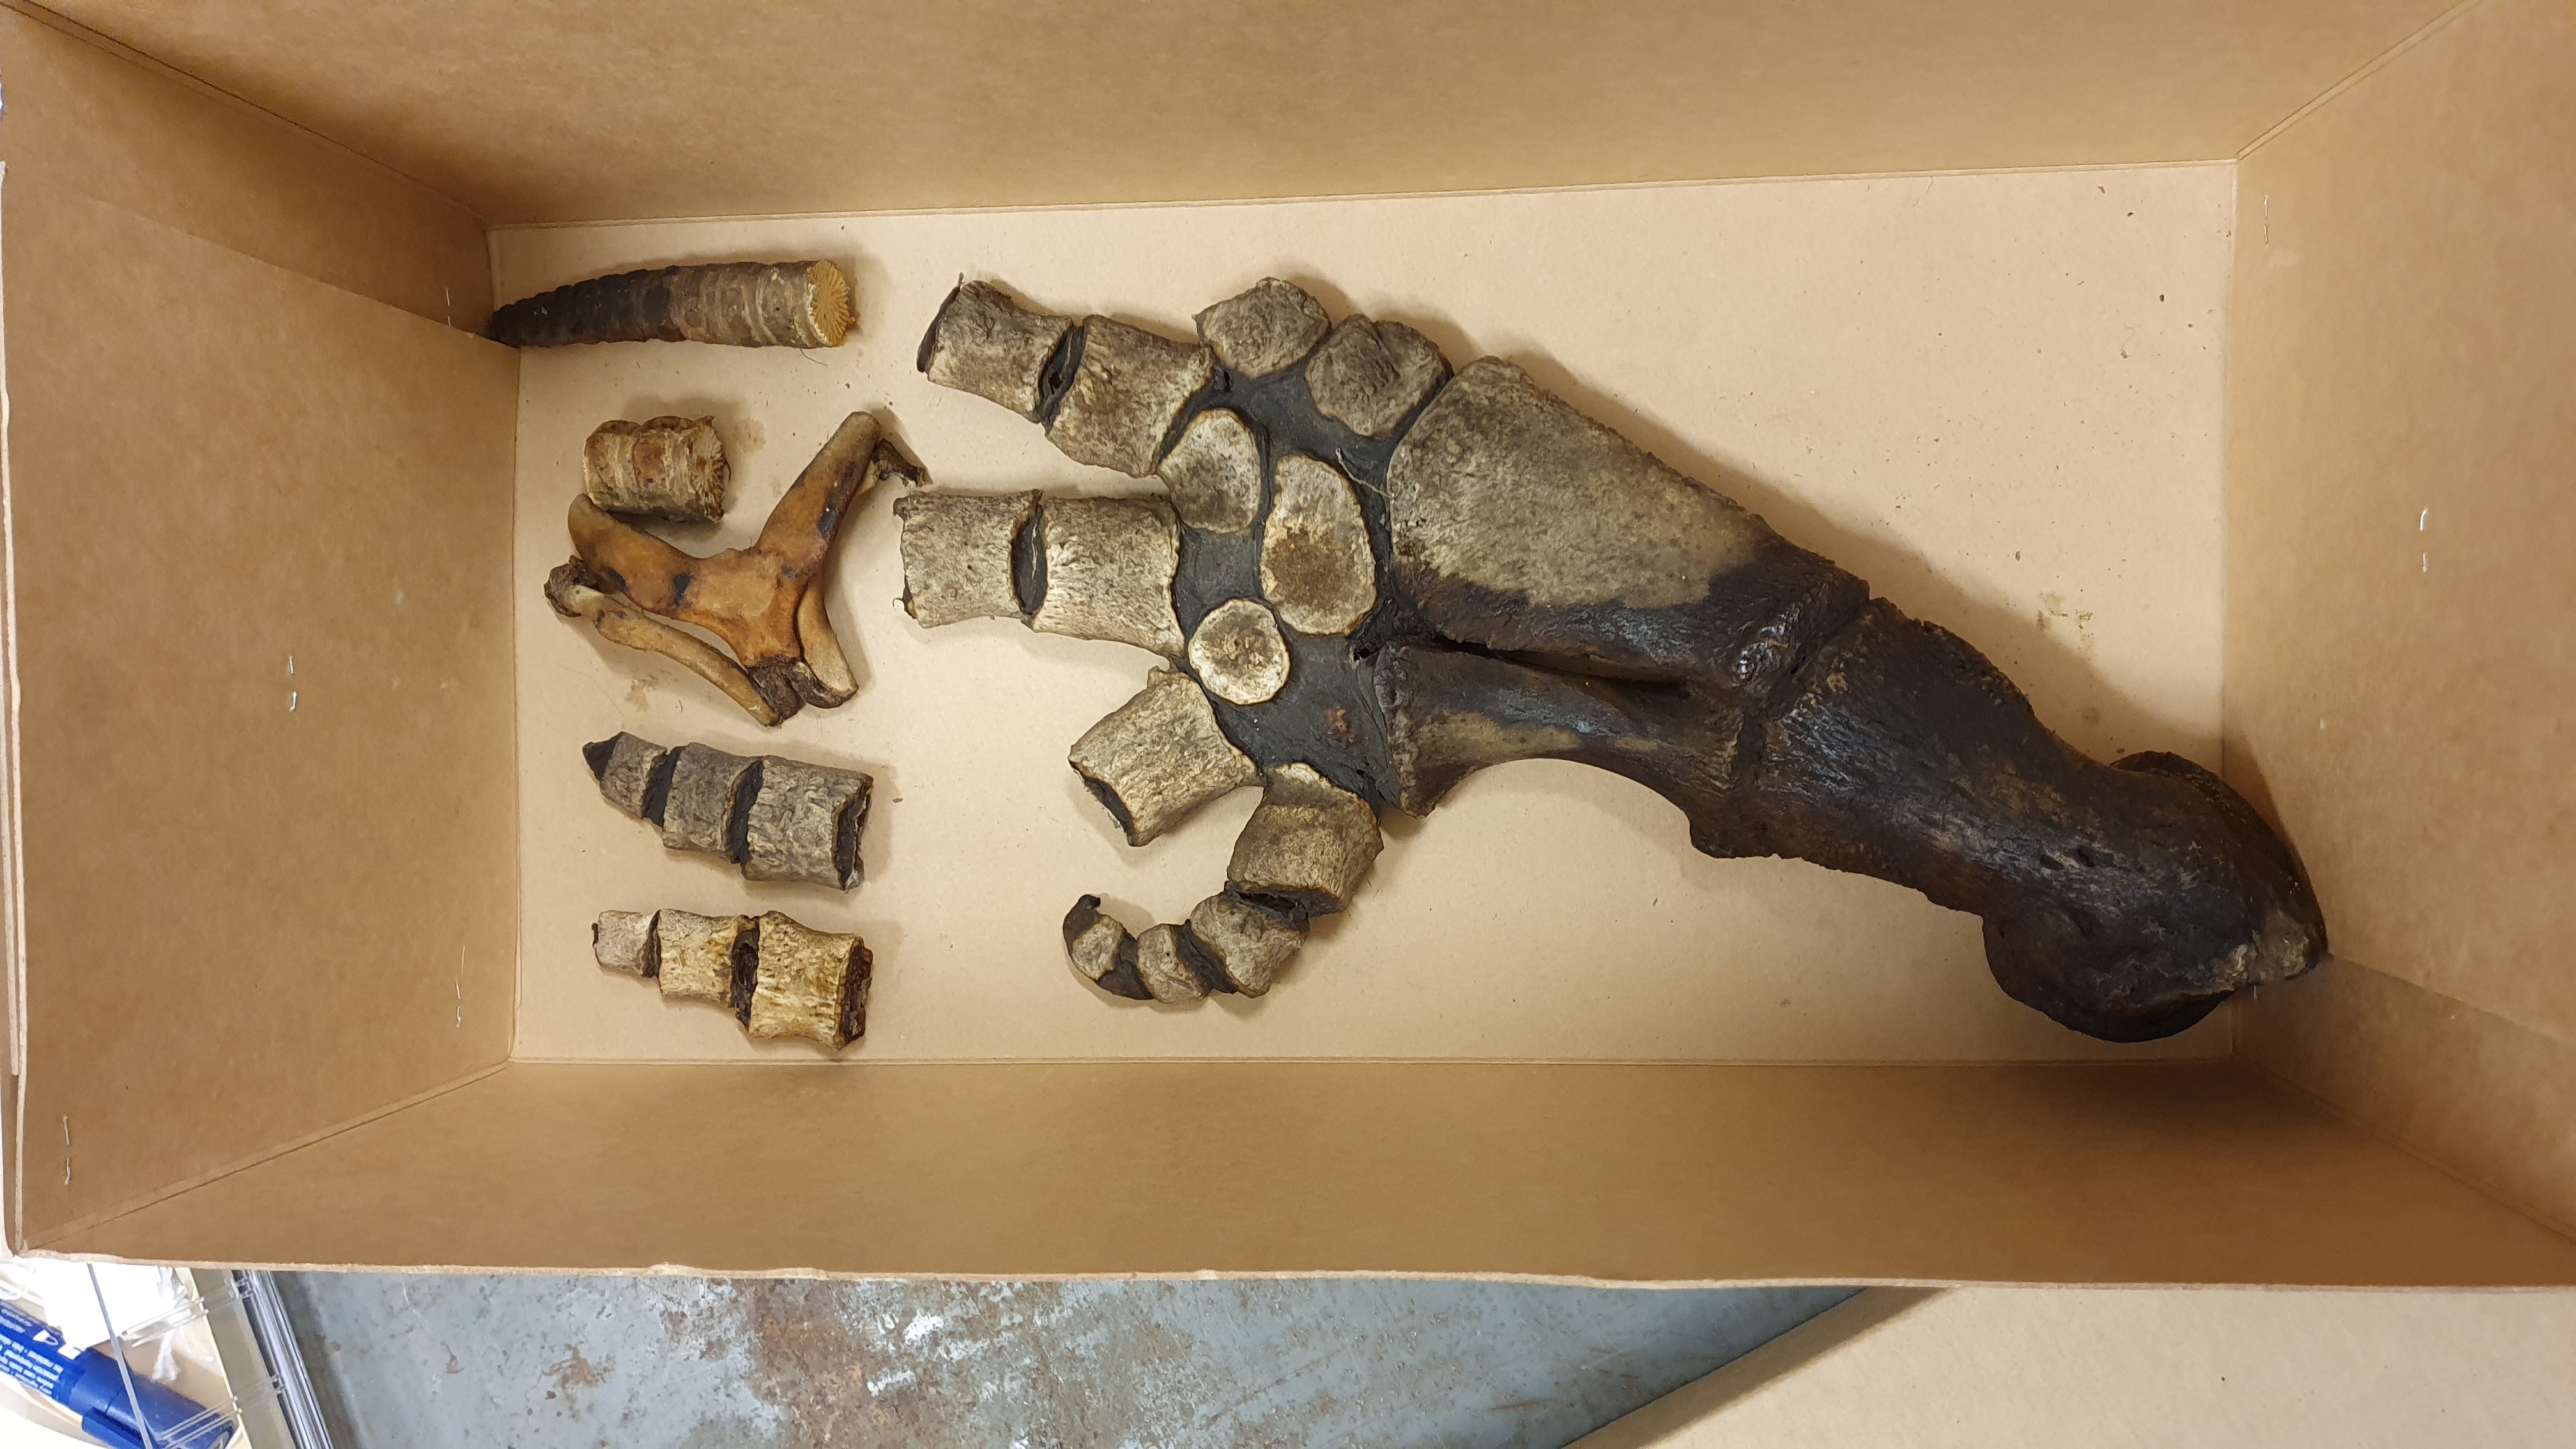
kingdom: Animalia
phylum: Chordata
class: Mammalia
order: Cetacea
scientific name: Cetacea
